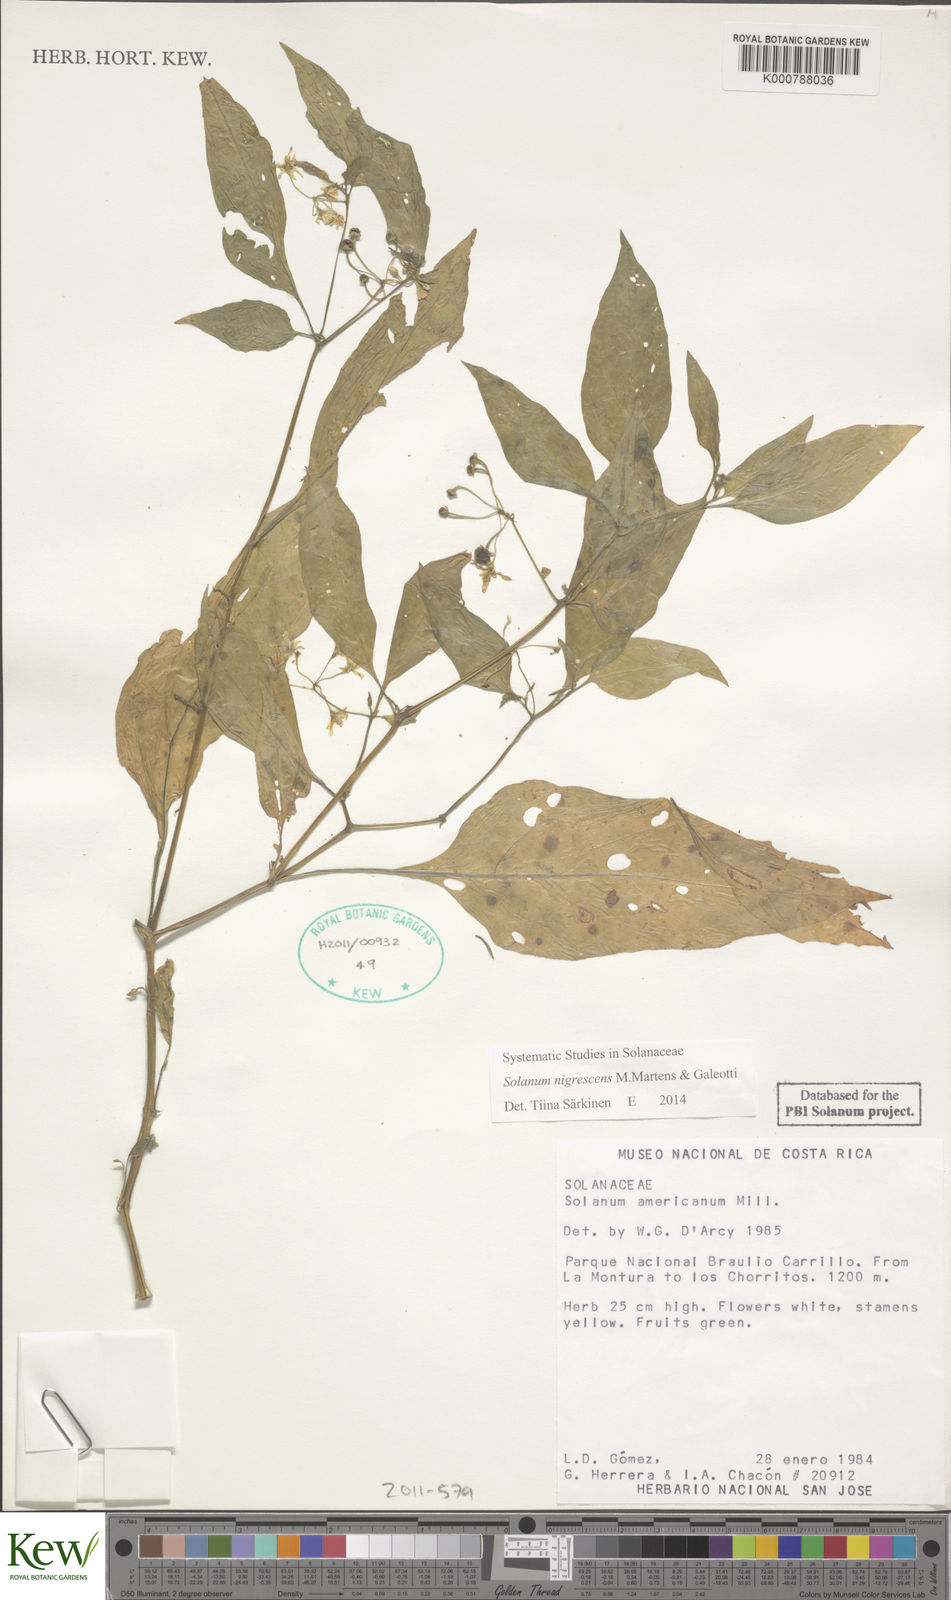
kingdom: Plantae
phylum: Tracheophyta
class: Magnoliopsida
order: Solanales
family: Solanaceae
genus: Solanum
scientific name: Solanum macrotonum
